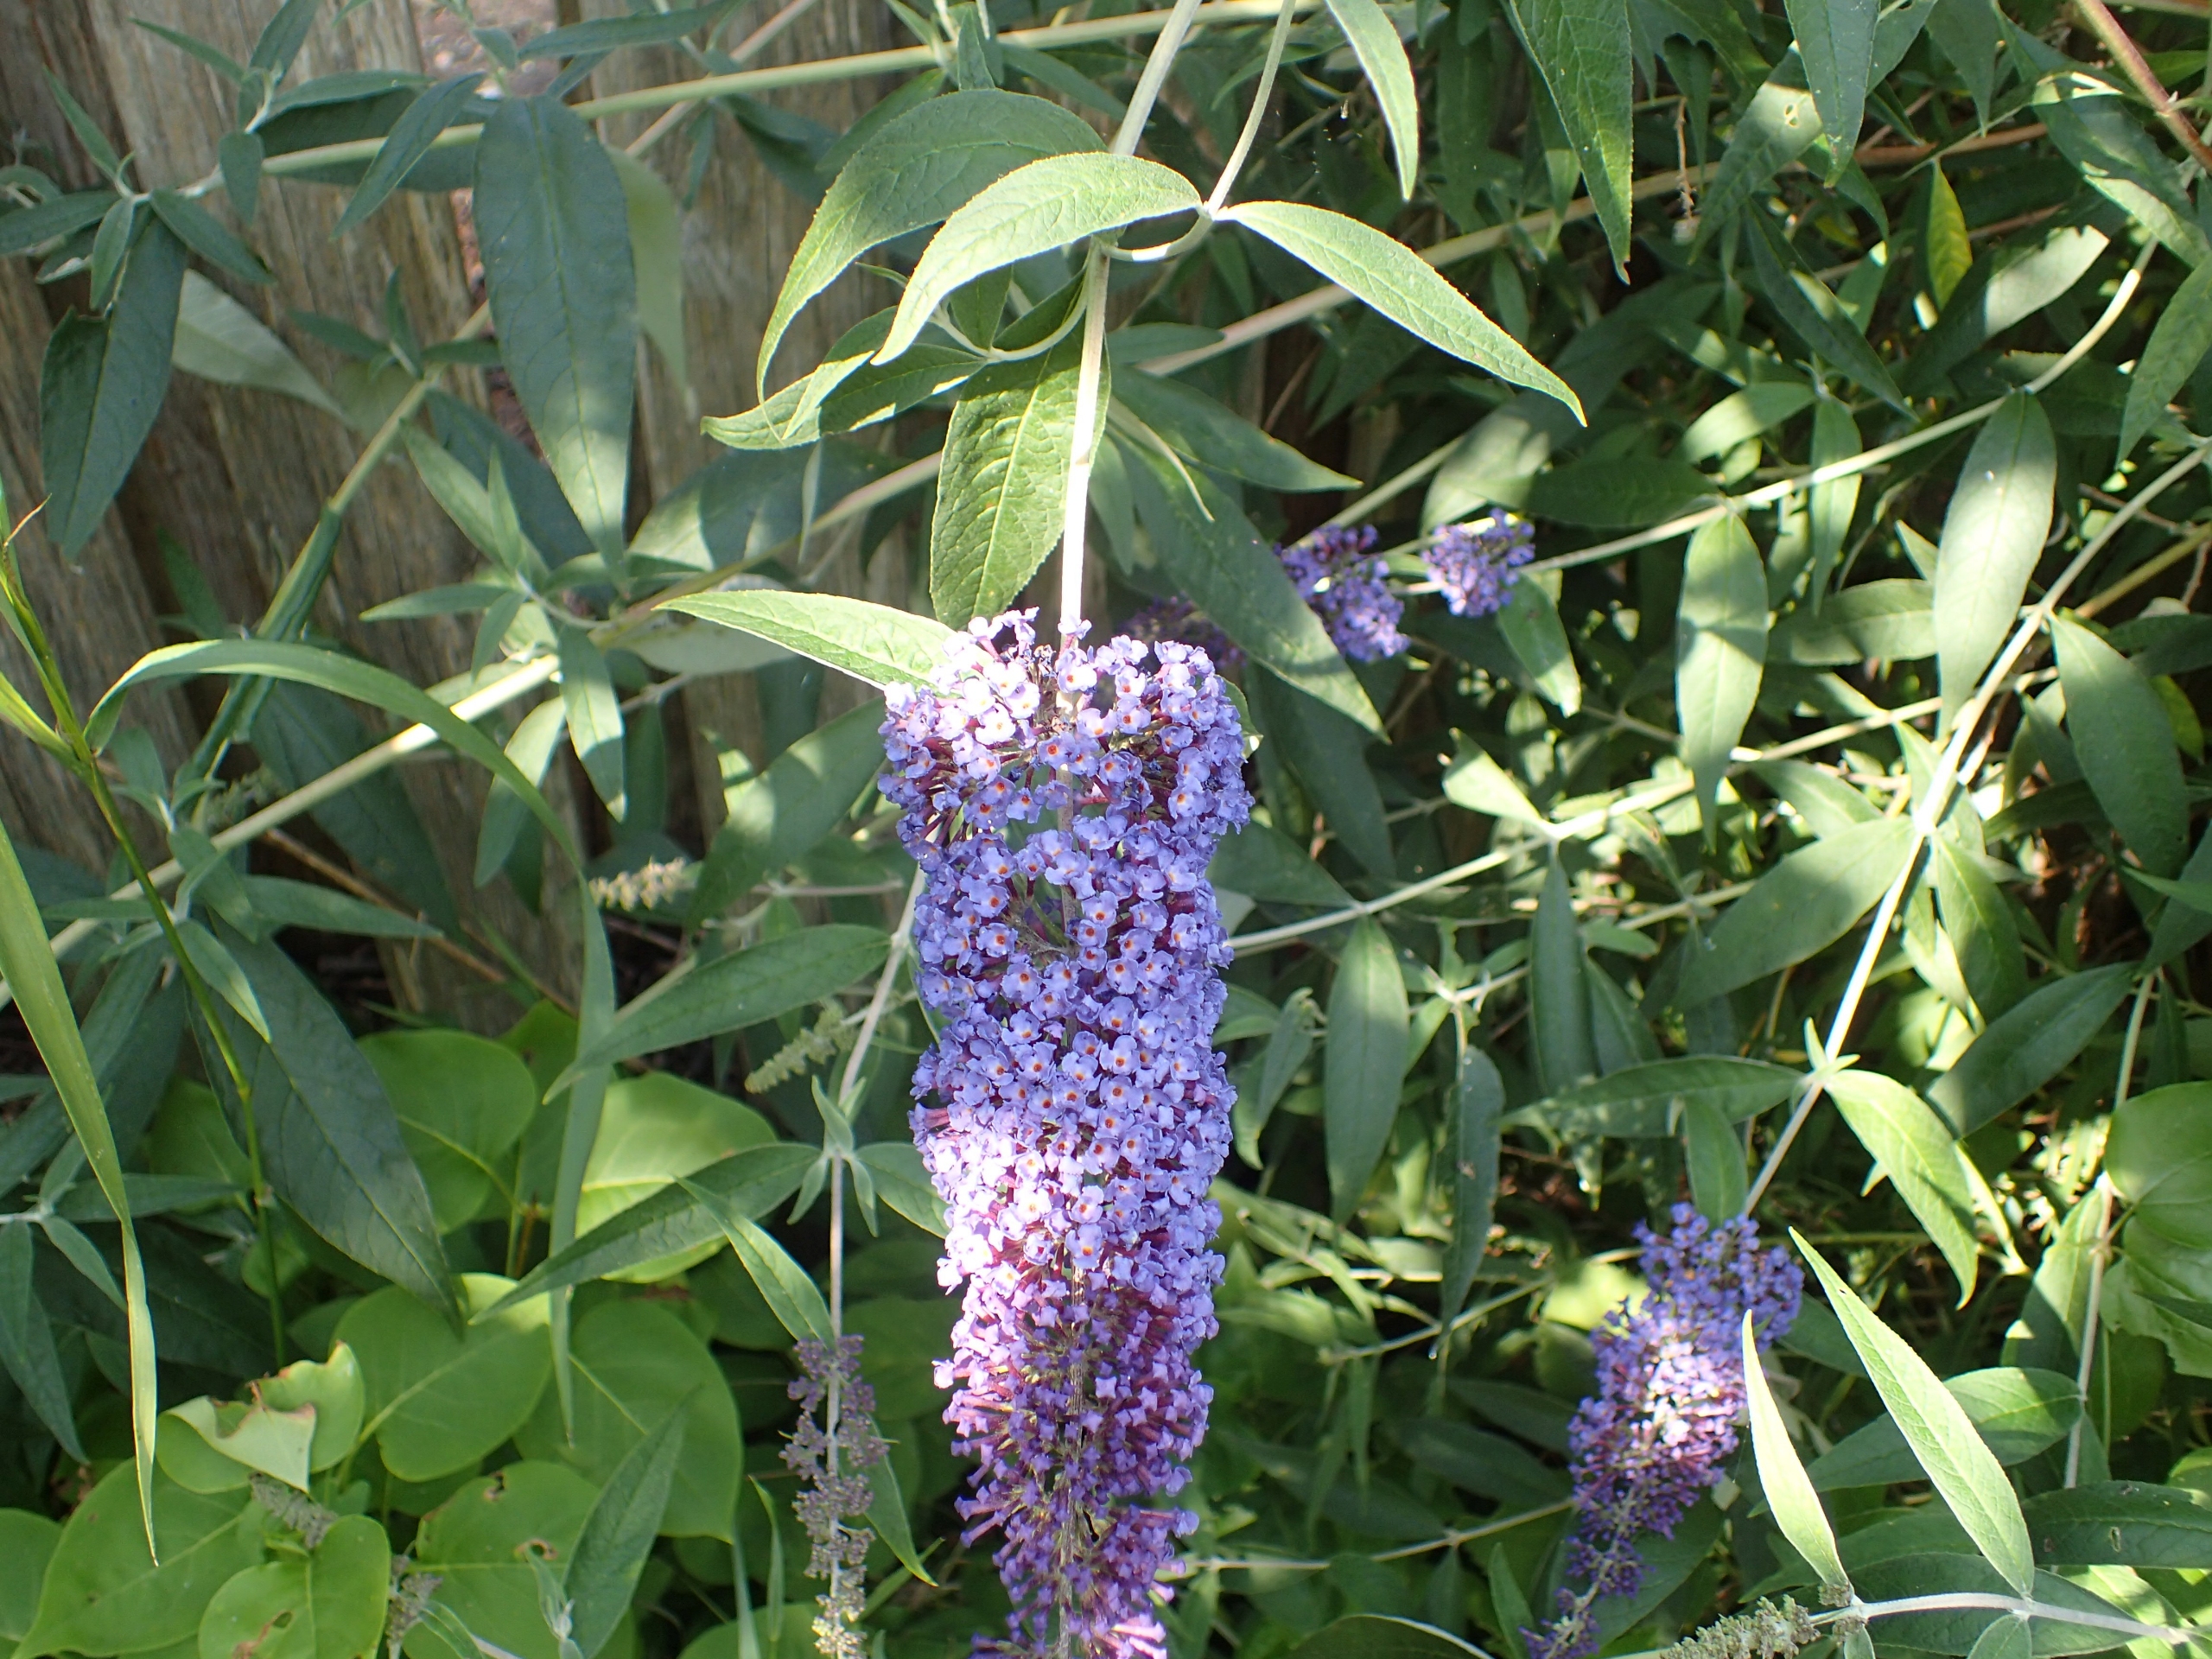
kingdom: Plantae
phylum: Tracheophyta
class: Magnoliopsida
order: Lamiales
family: Scrophulariaceae
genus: Buddleja
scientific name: Buddleja davidii
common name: Sommerfuglebusk
